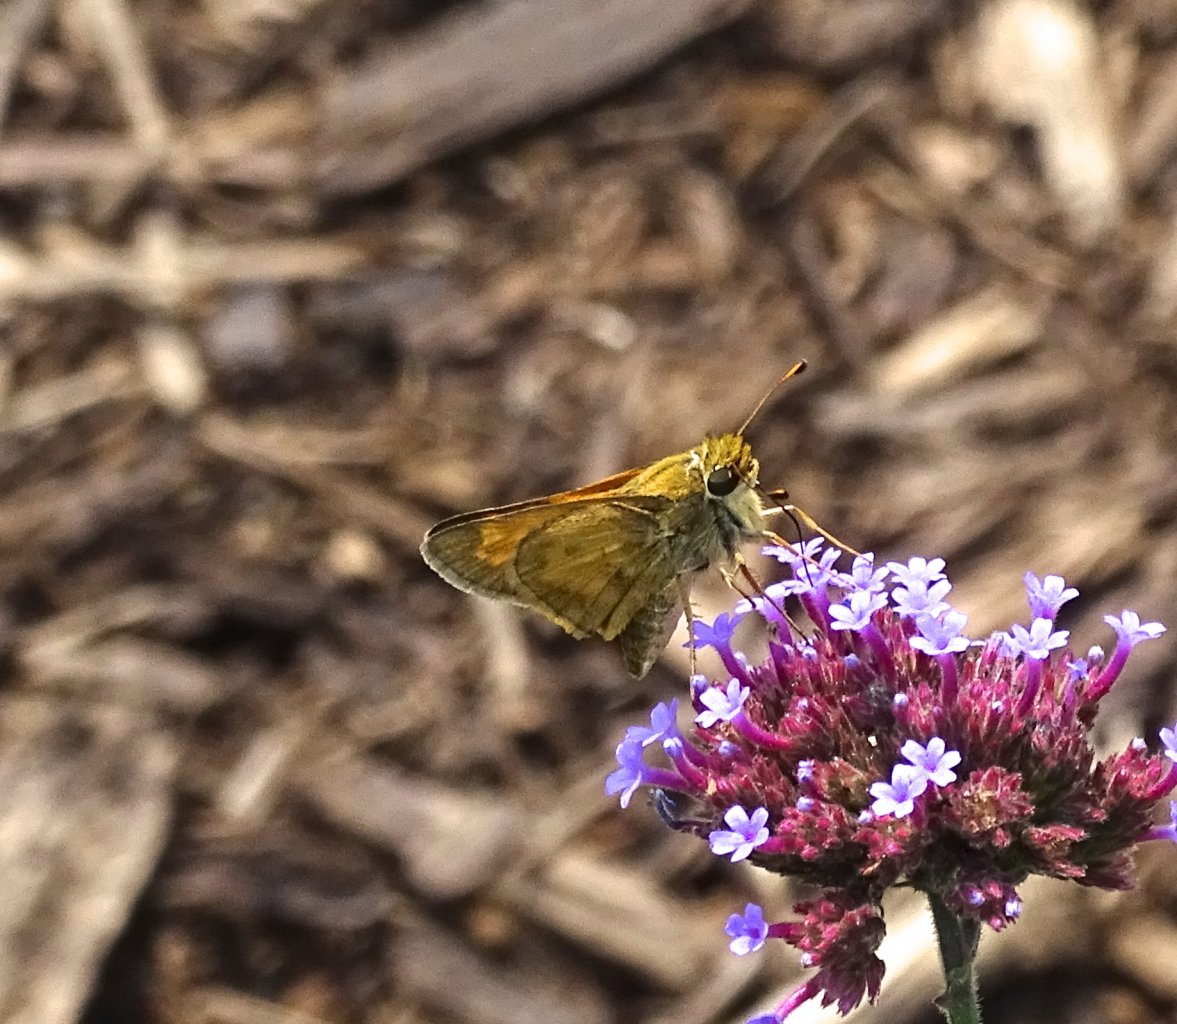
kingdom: Animalia
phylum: Arthropoda
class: Insecta
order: Lepidoptera
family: Hesperiidae
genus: Atalopedes
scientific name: Atalopedes campestris
